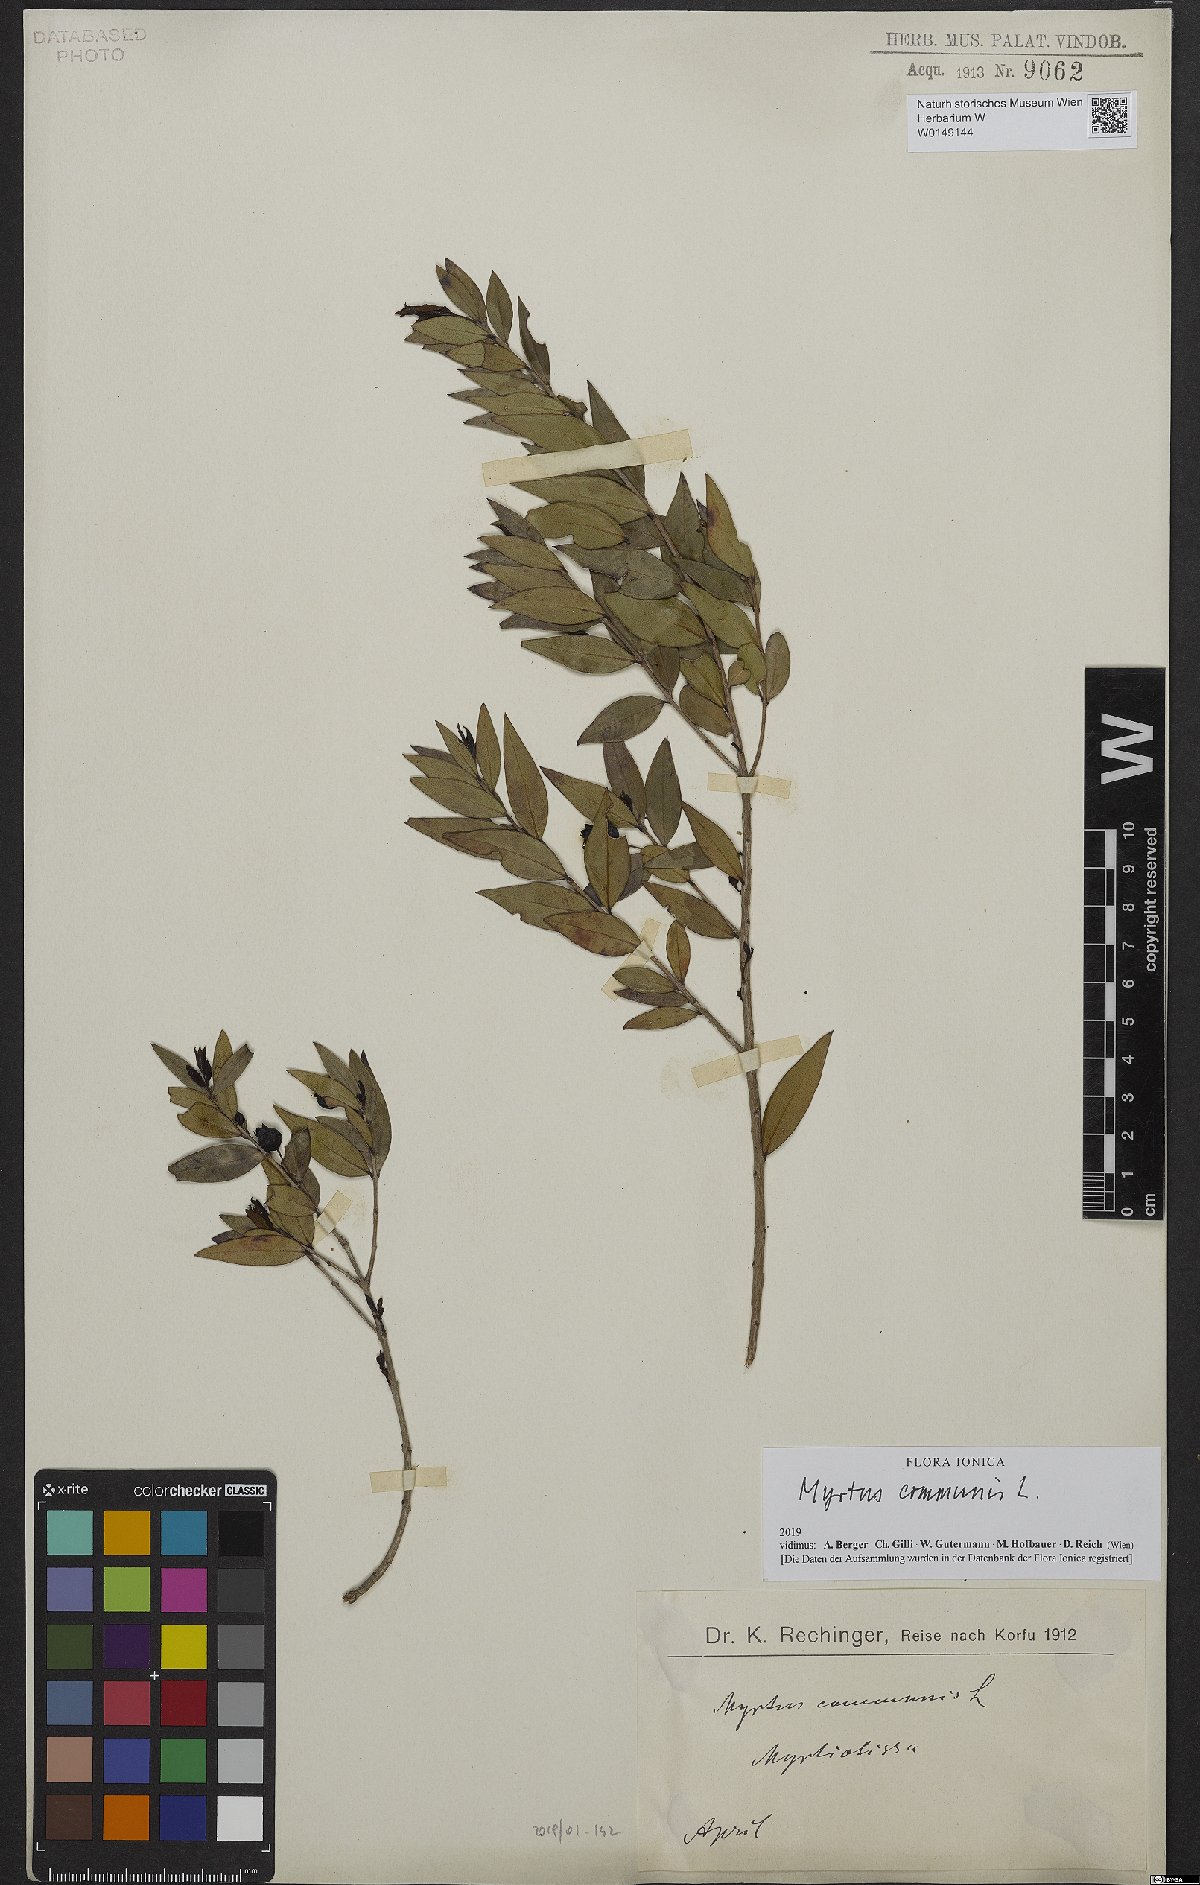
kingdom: Plantae
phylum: Tracheophyta
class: Magnoliopsida
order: Myrtales
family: Myrtaceae
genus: Myrtus
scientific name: Myrtus communis
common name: Myrtle
